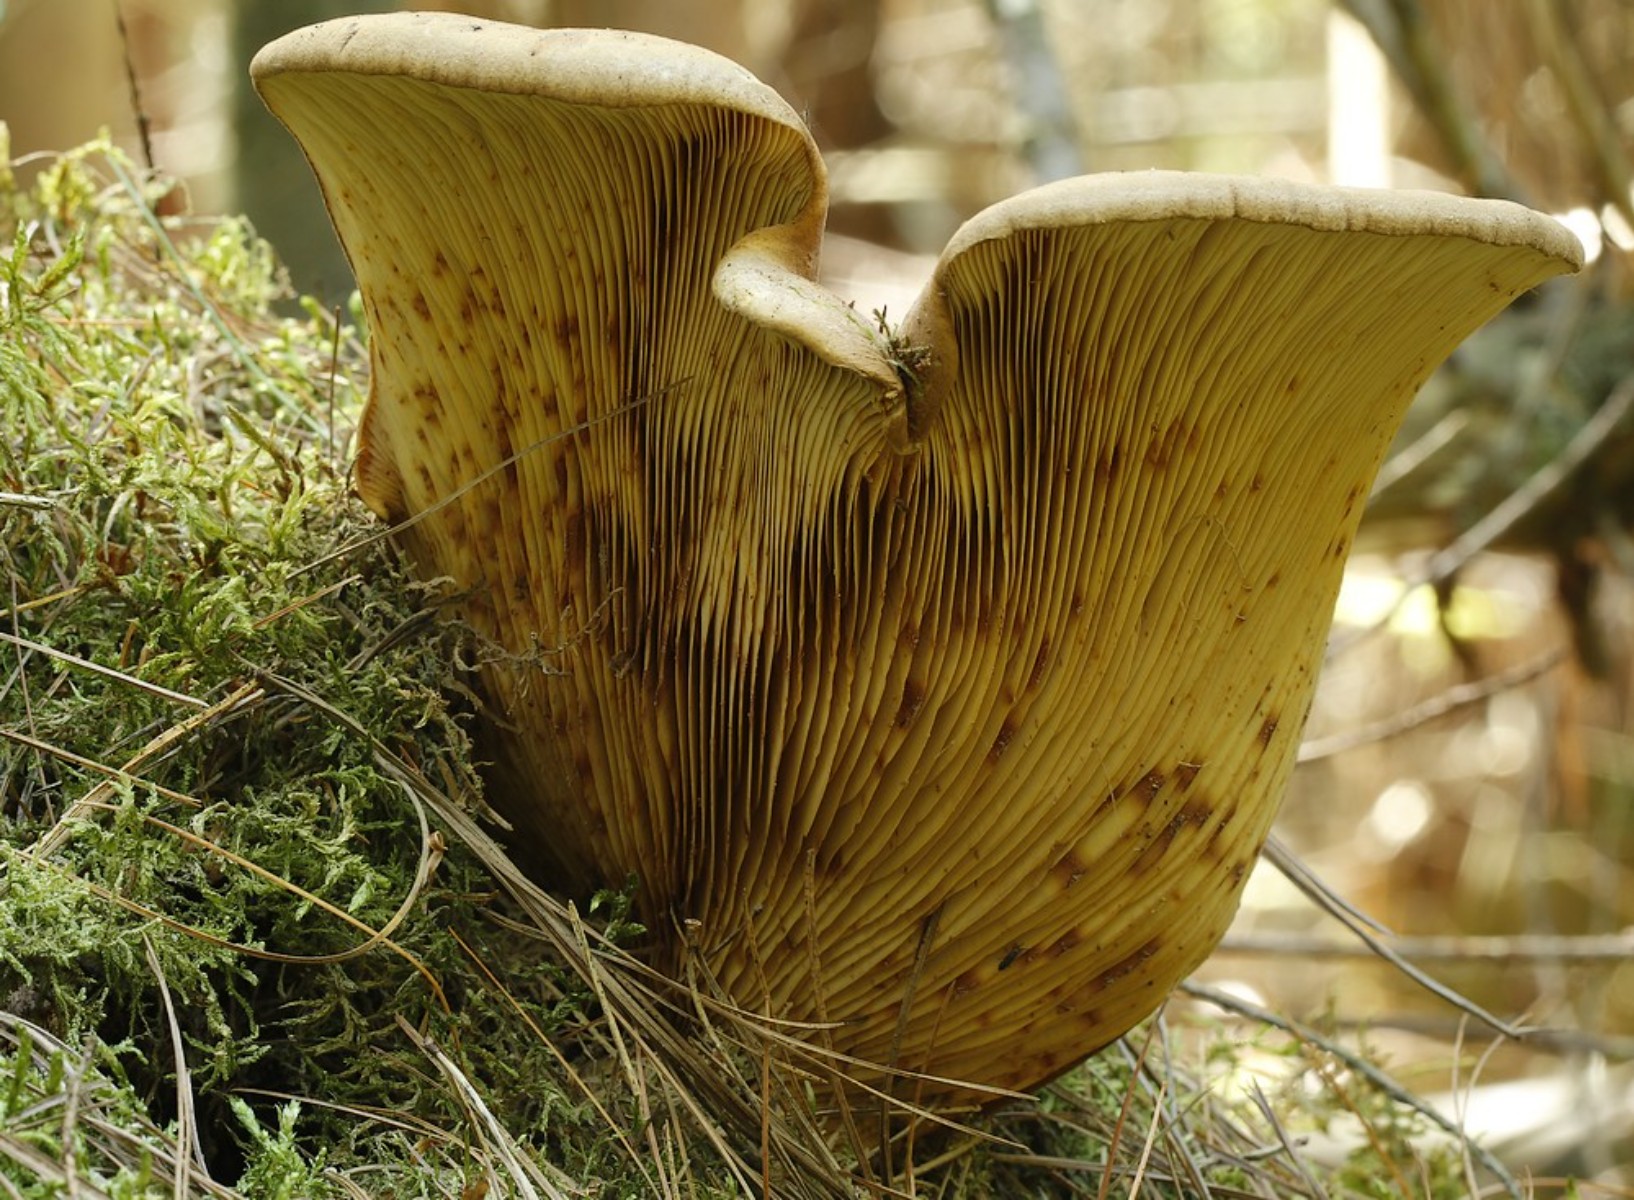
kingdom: Fungi
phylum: Basidiomycota
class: Agaricomycetes
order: Boletales
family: Tapinellaceae
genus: Tapinella
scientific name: Tapinella atrotomentosa
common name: sortfiltet viftesvamp
